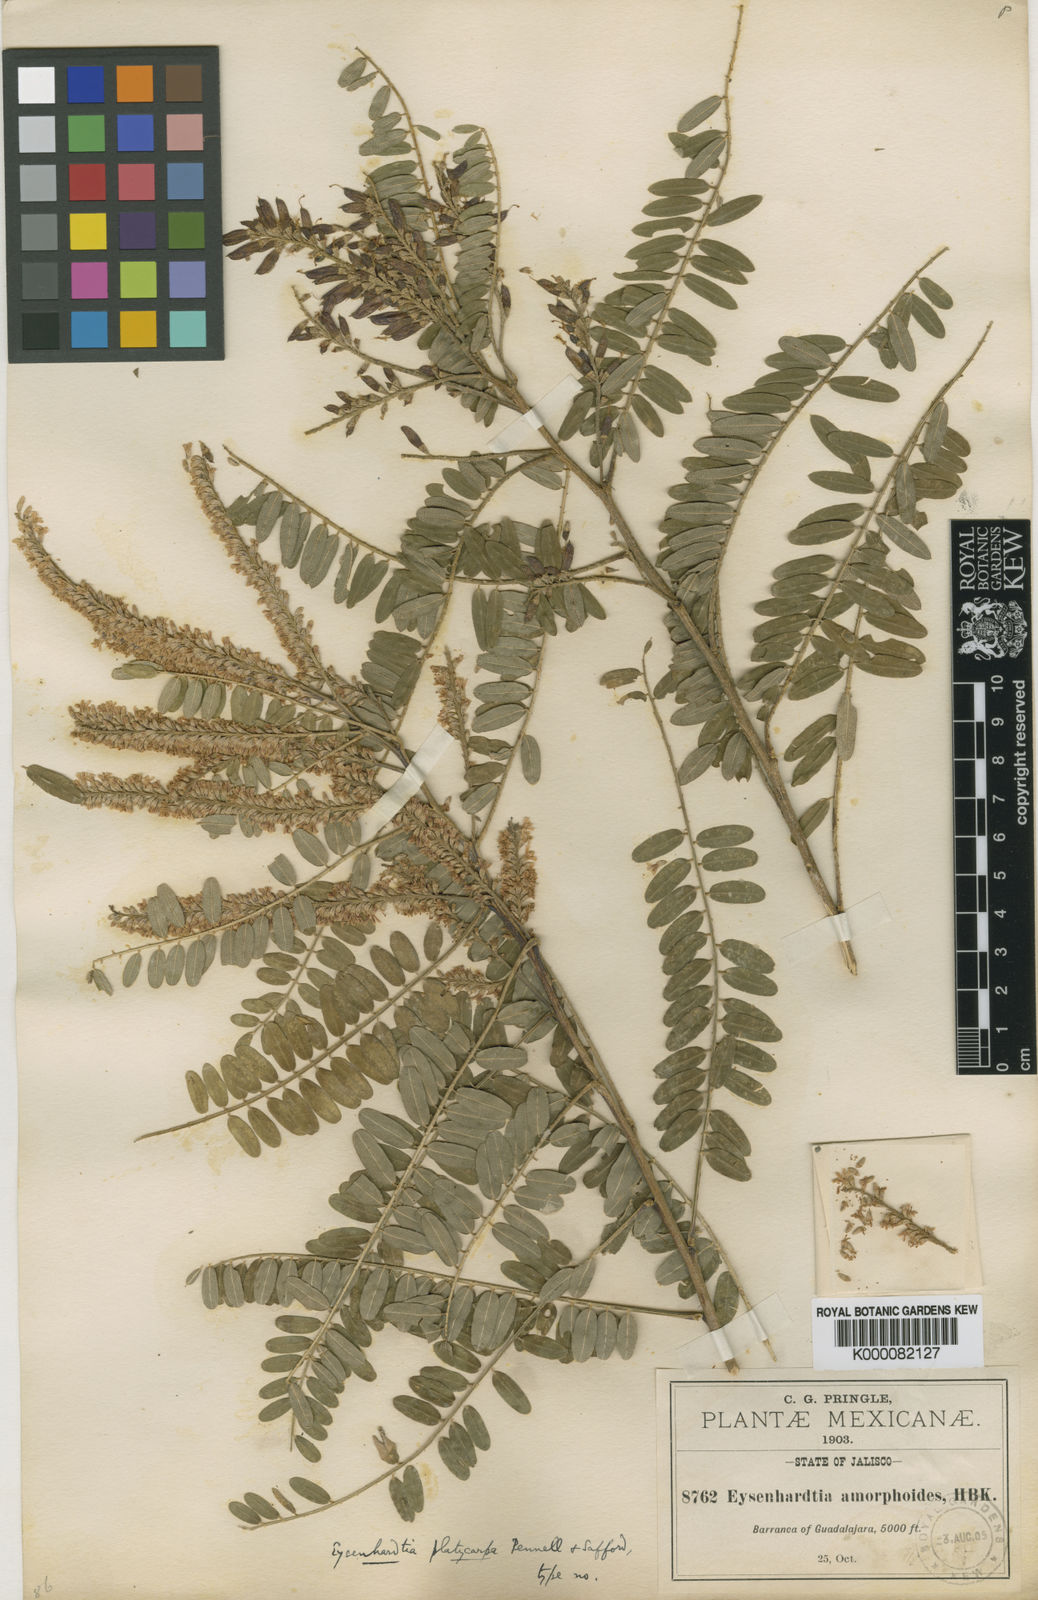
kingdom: Plantae
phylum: Tracheophyta
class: Magnoliopsida
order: Fabales
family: Fabaceae
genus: Eysenhardtia
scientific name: Eysenhardtia platycarpa
